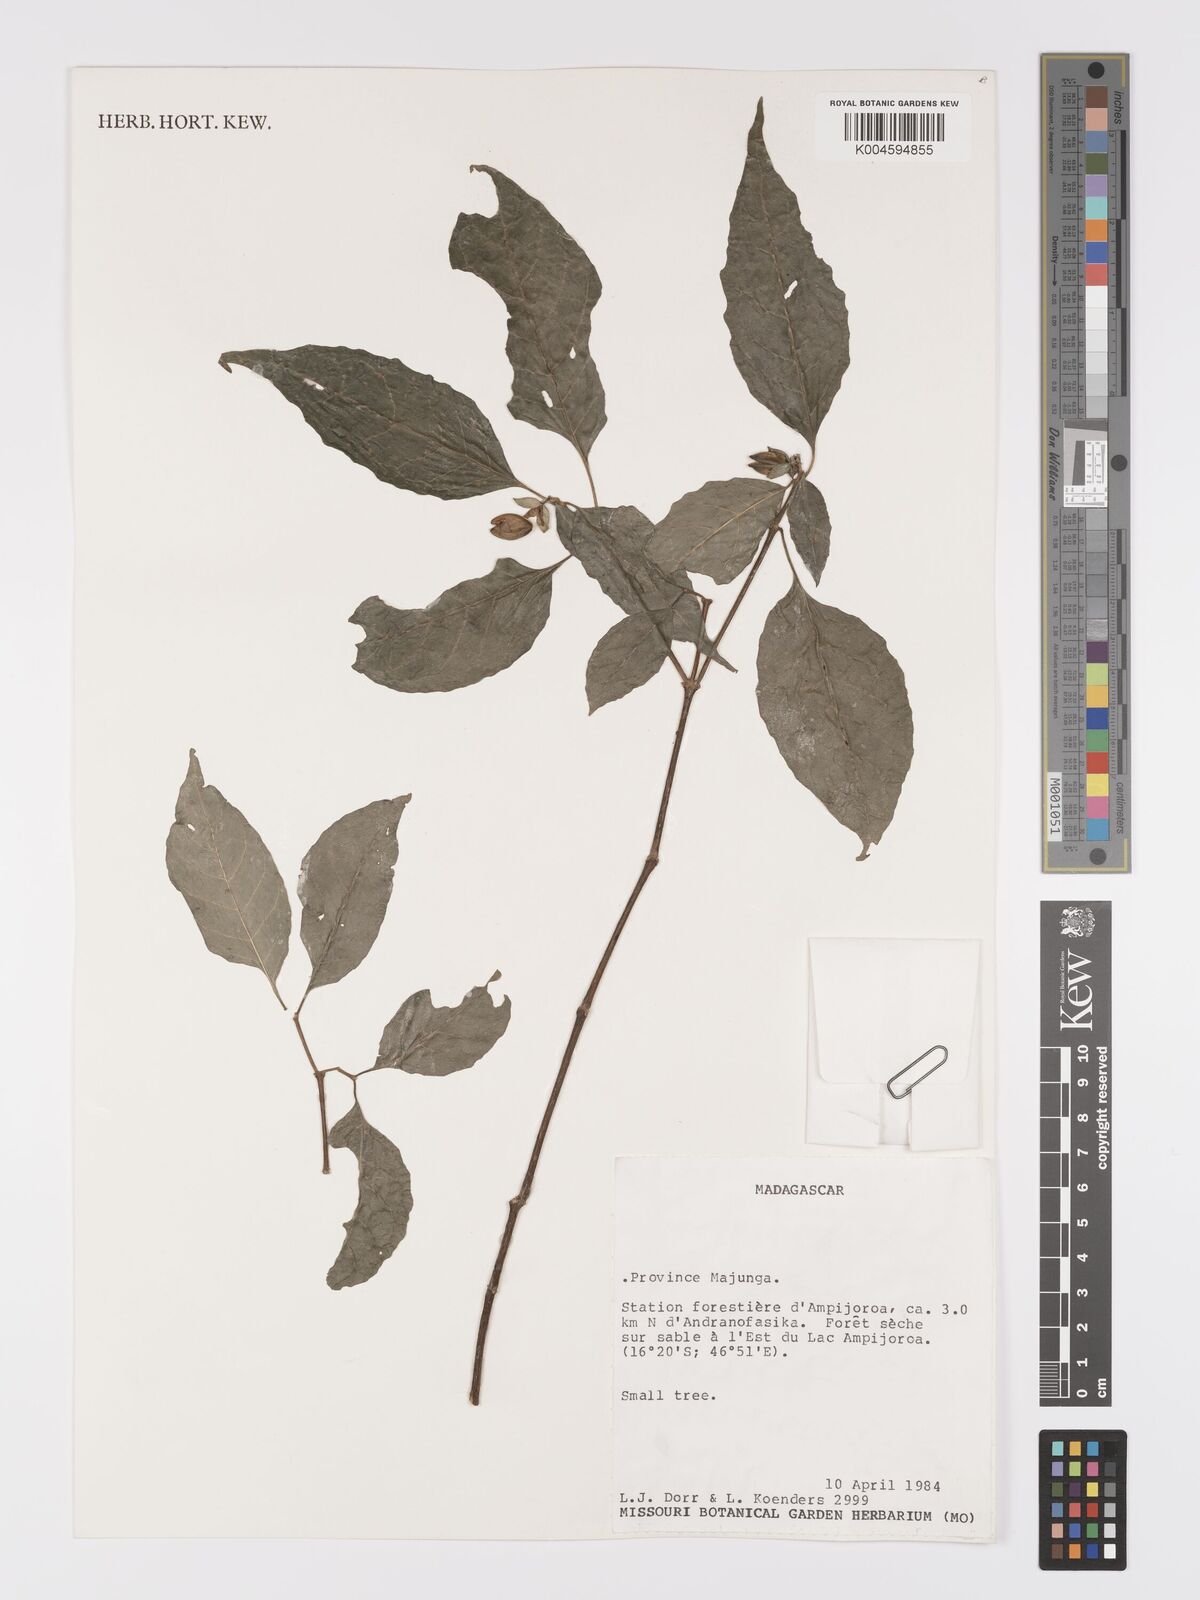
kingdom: Plantae
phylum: Tracheophyta
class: Magnoliopsida
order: Lamiales
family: Acanthaceae
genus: Leandriella
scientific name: Leandriella valvata
